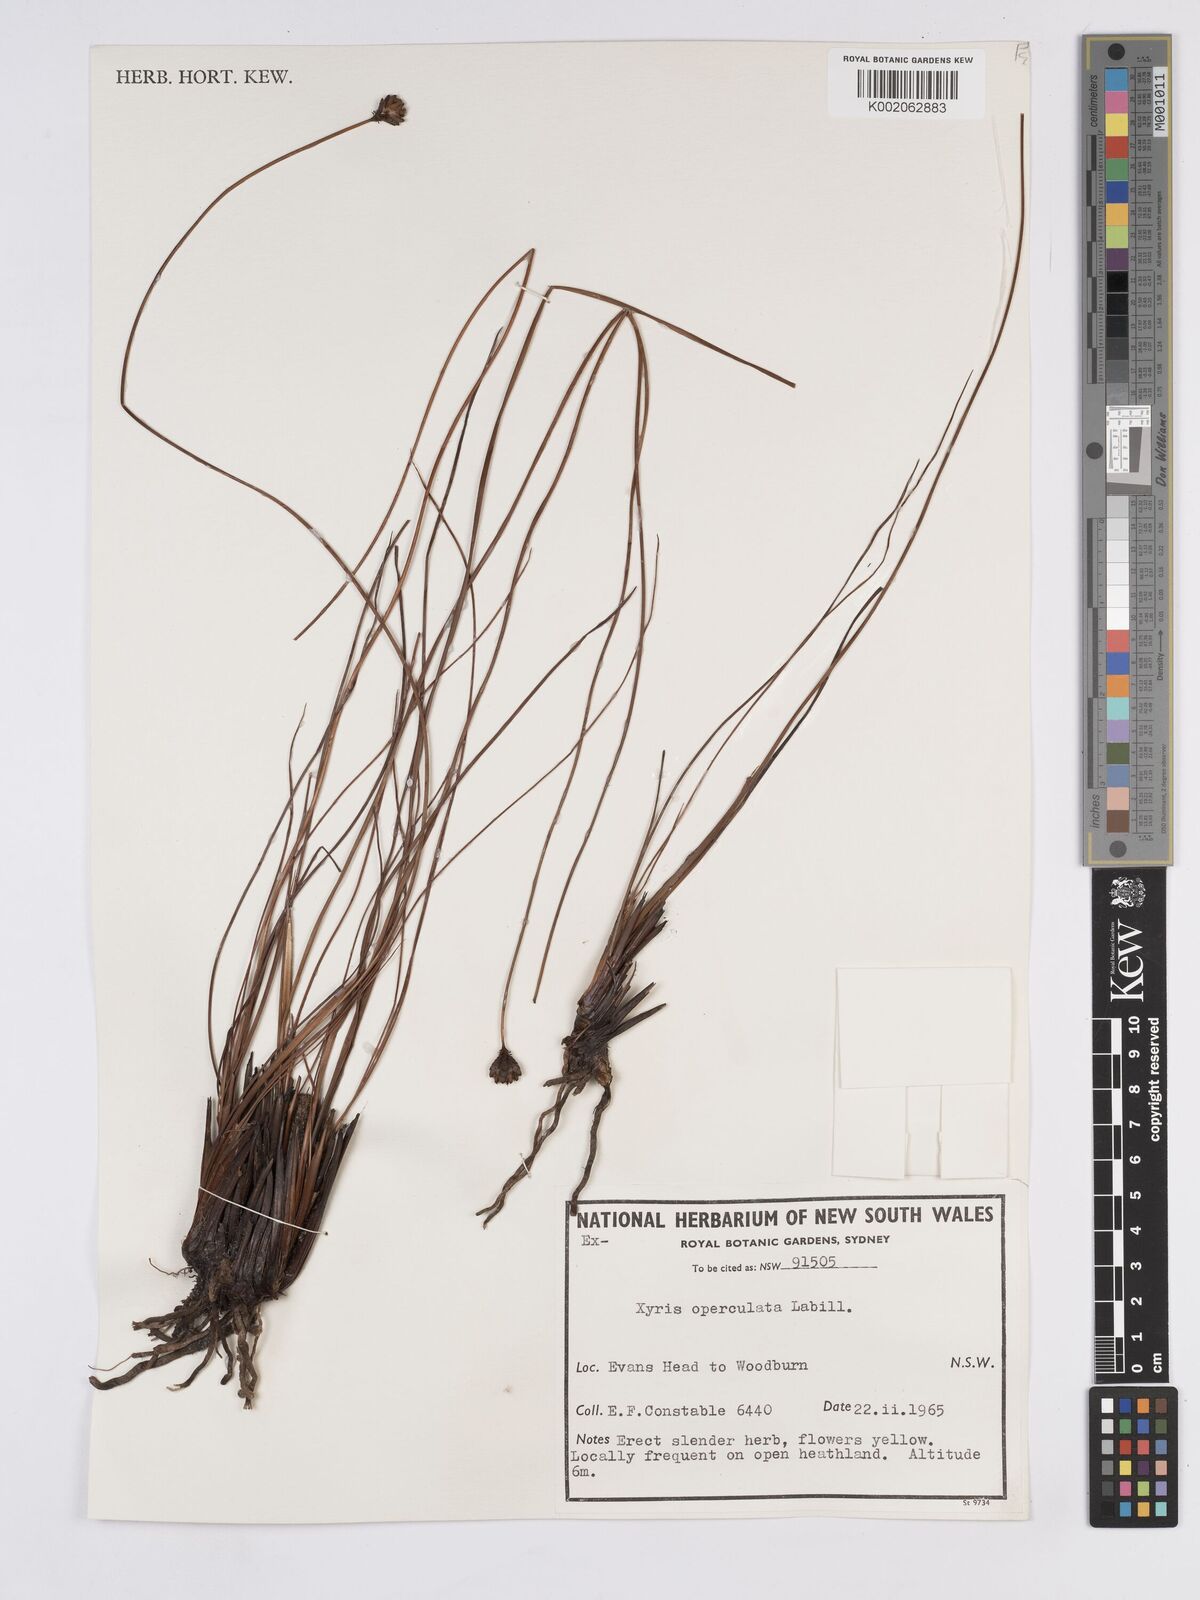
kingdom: Plantae
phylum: Tracheophyta
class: Liliopsida
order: Poales
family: Xyridaceae
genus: Xyris
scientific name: Xyris operculata
